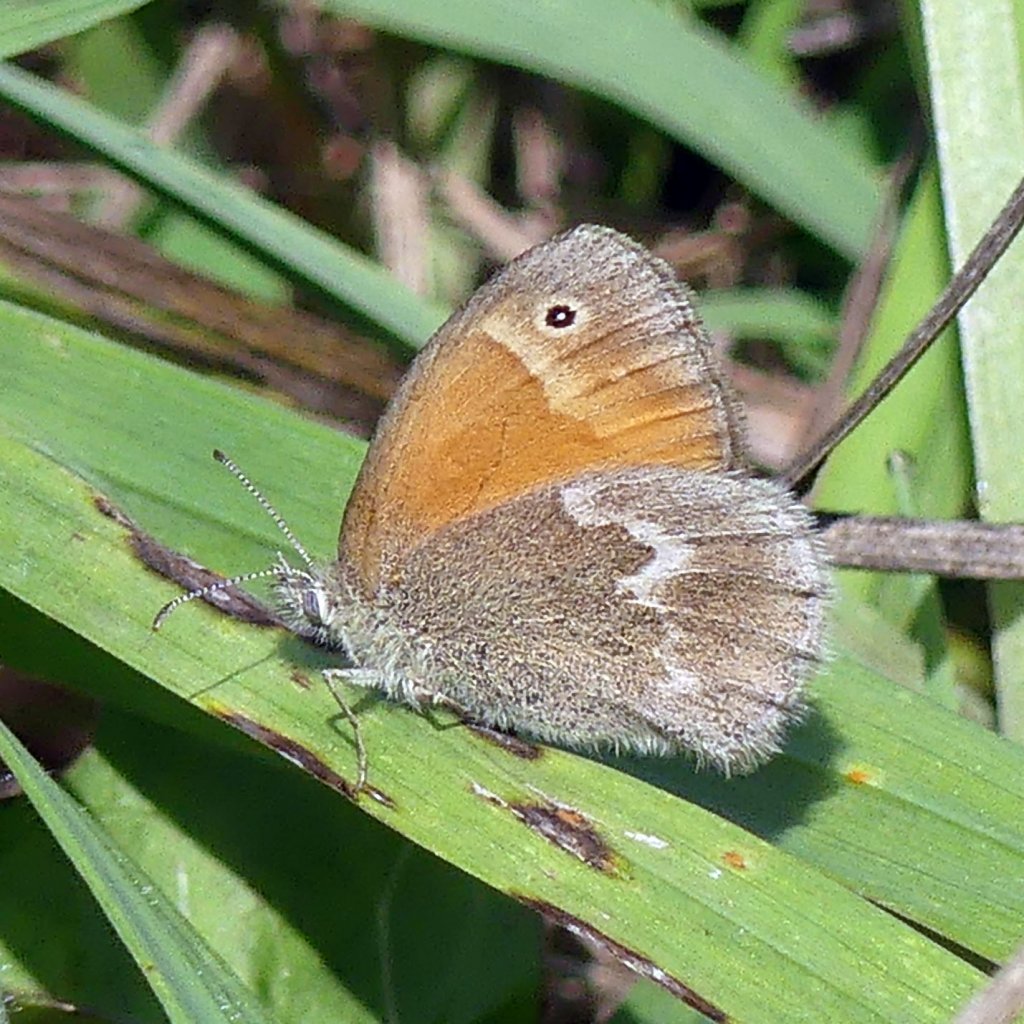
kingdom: Animalia
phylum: Arthropoda
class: Insecta
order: Lepidoptera
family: Nymphalidae
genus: Coenonympha
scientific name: Coenonympha tullia
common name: Large Heath
